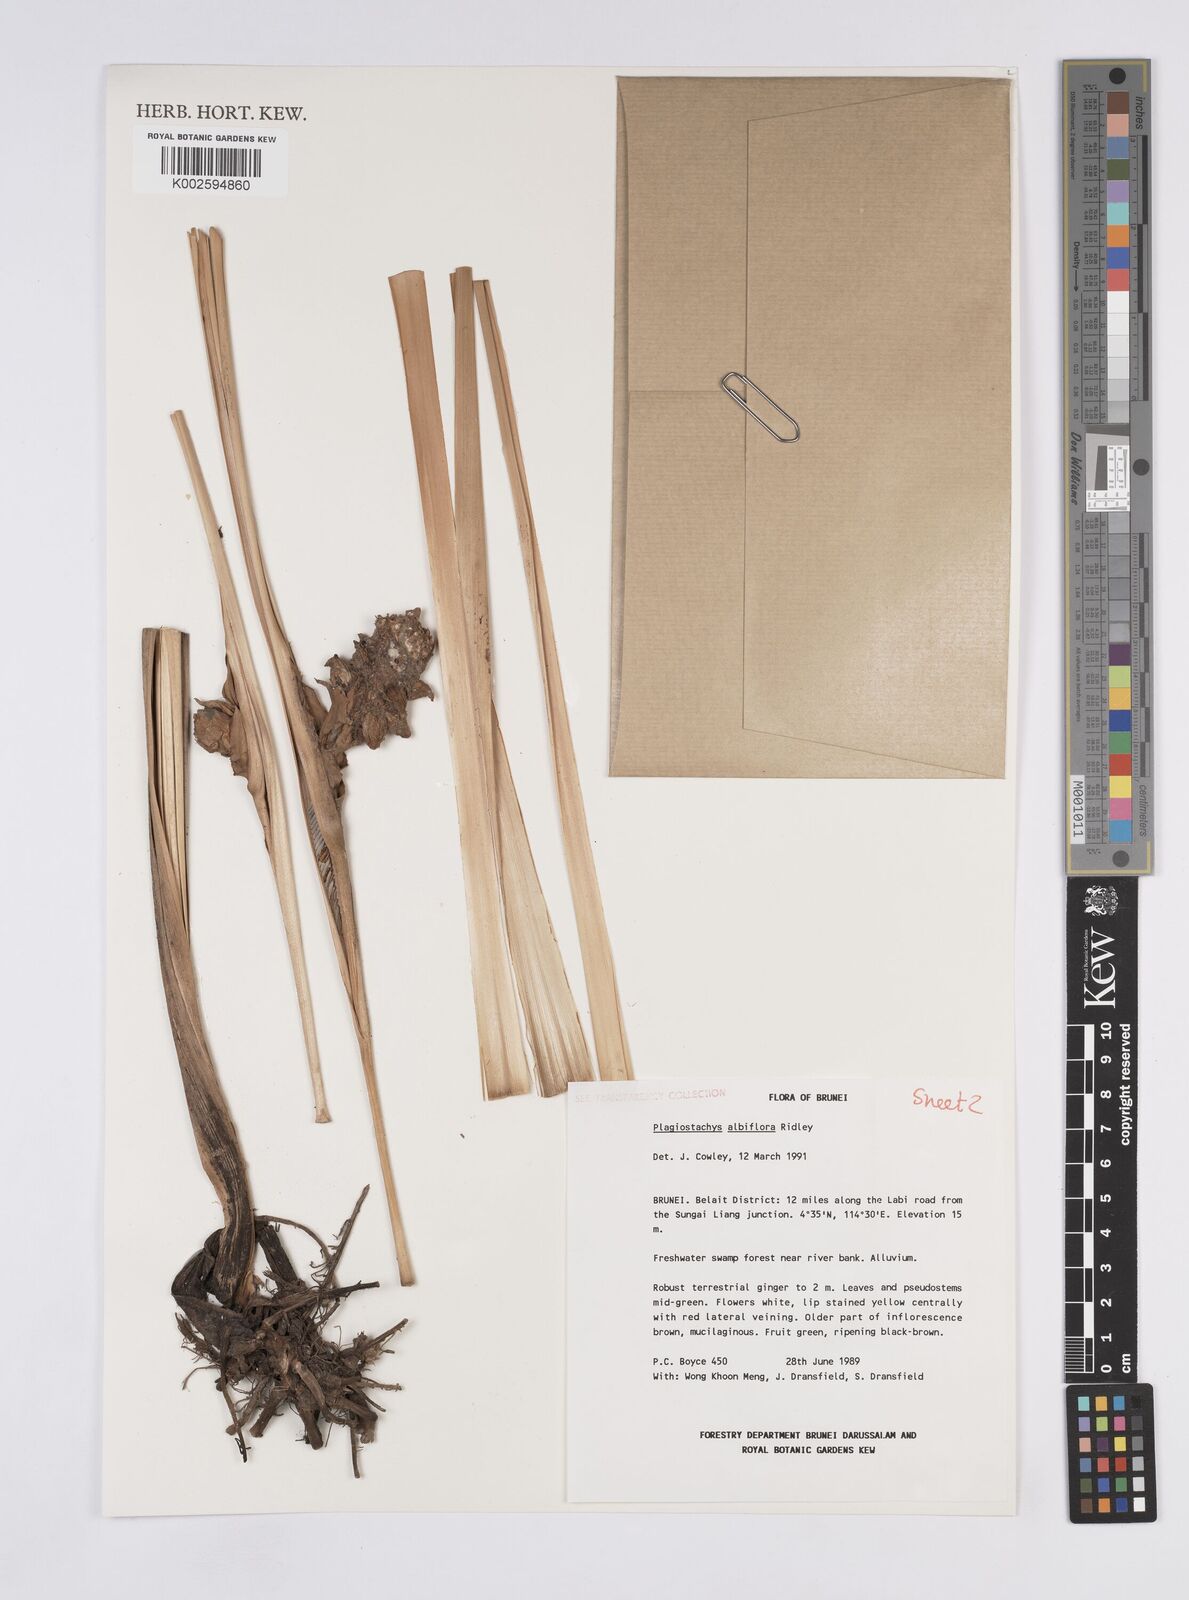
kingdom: Plantae
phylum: Tracheophyta
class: Liliopsida
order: Zingiberales
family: Zingiberaceae
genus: Plagiostachys
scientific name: Plagiostachys albiflora
